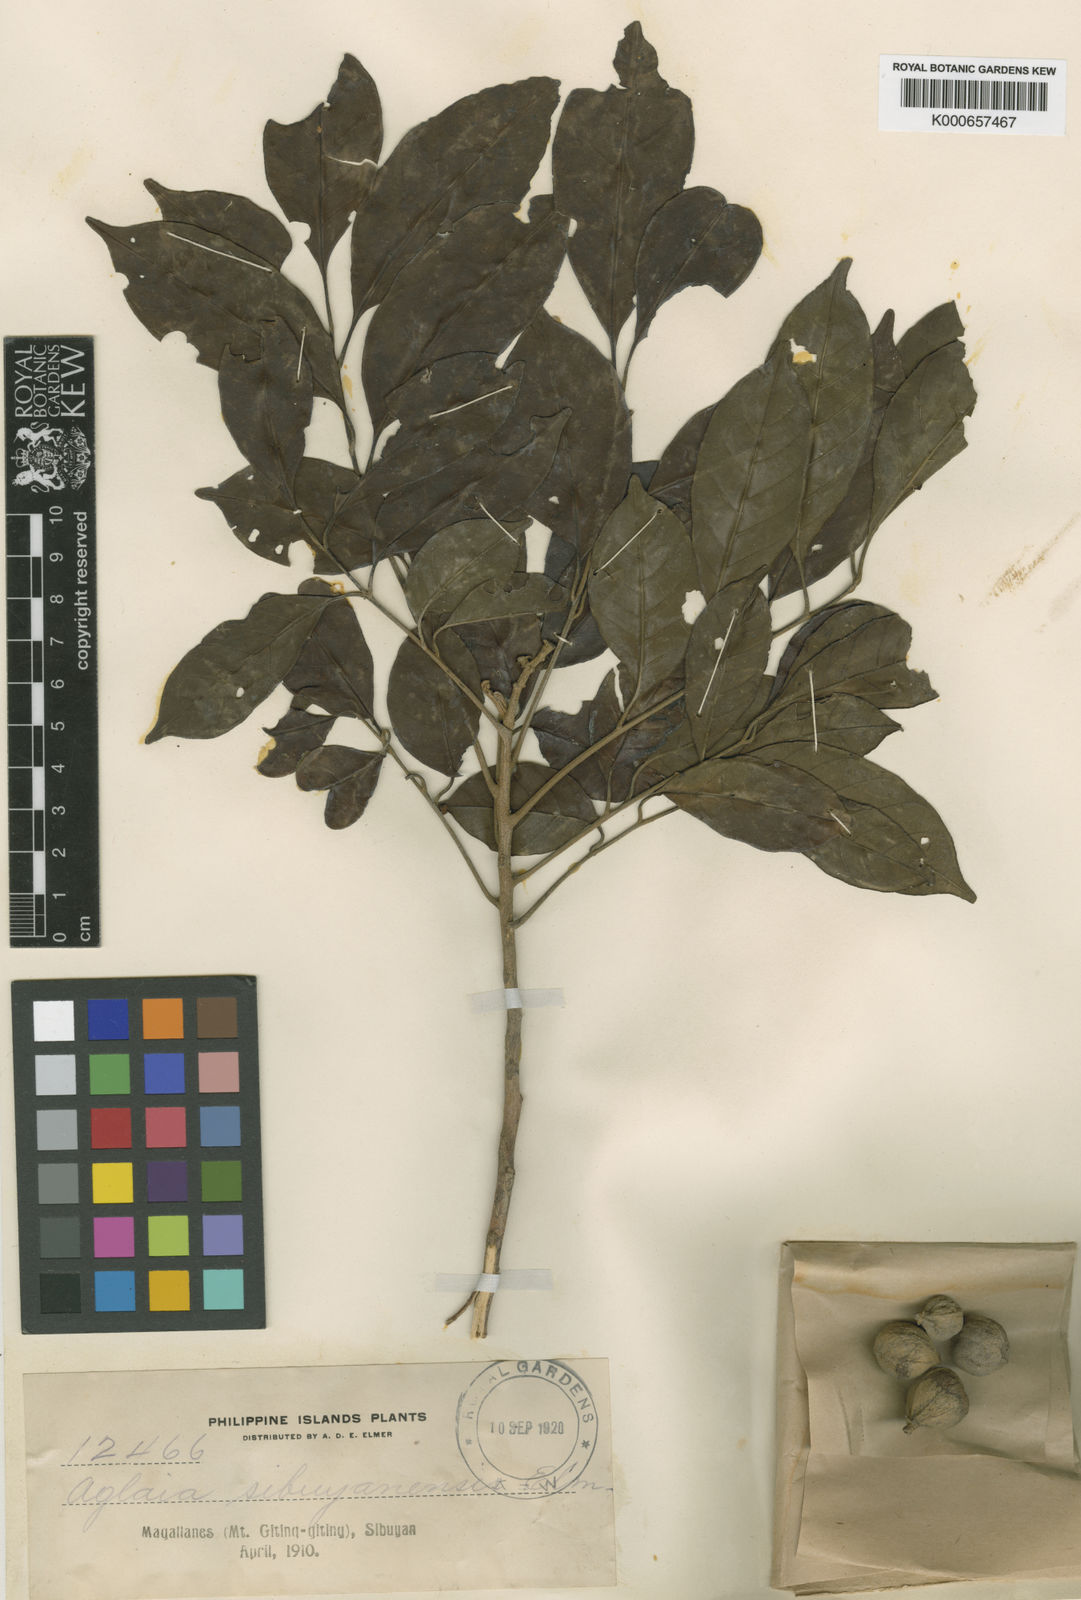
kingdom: Plantae
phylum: Tracheophyta
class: Magnoliopsida
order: Sapindales
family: Meliaceae
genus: Aglaia
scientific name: Aglaia lawii
